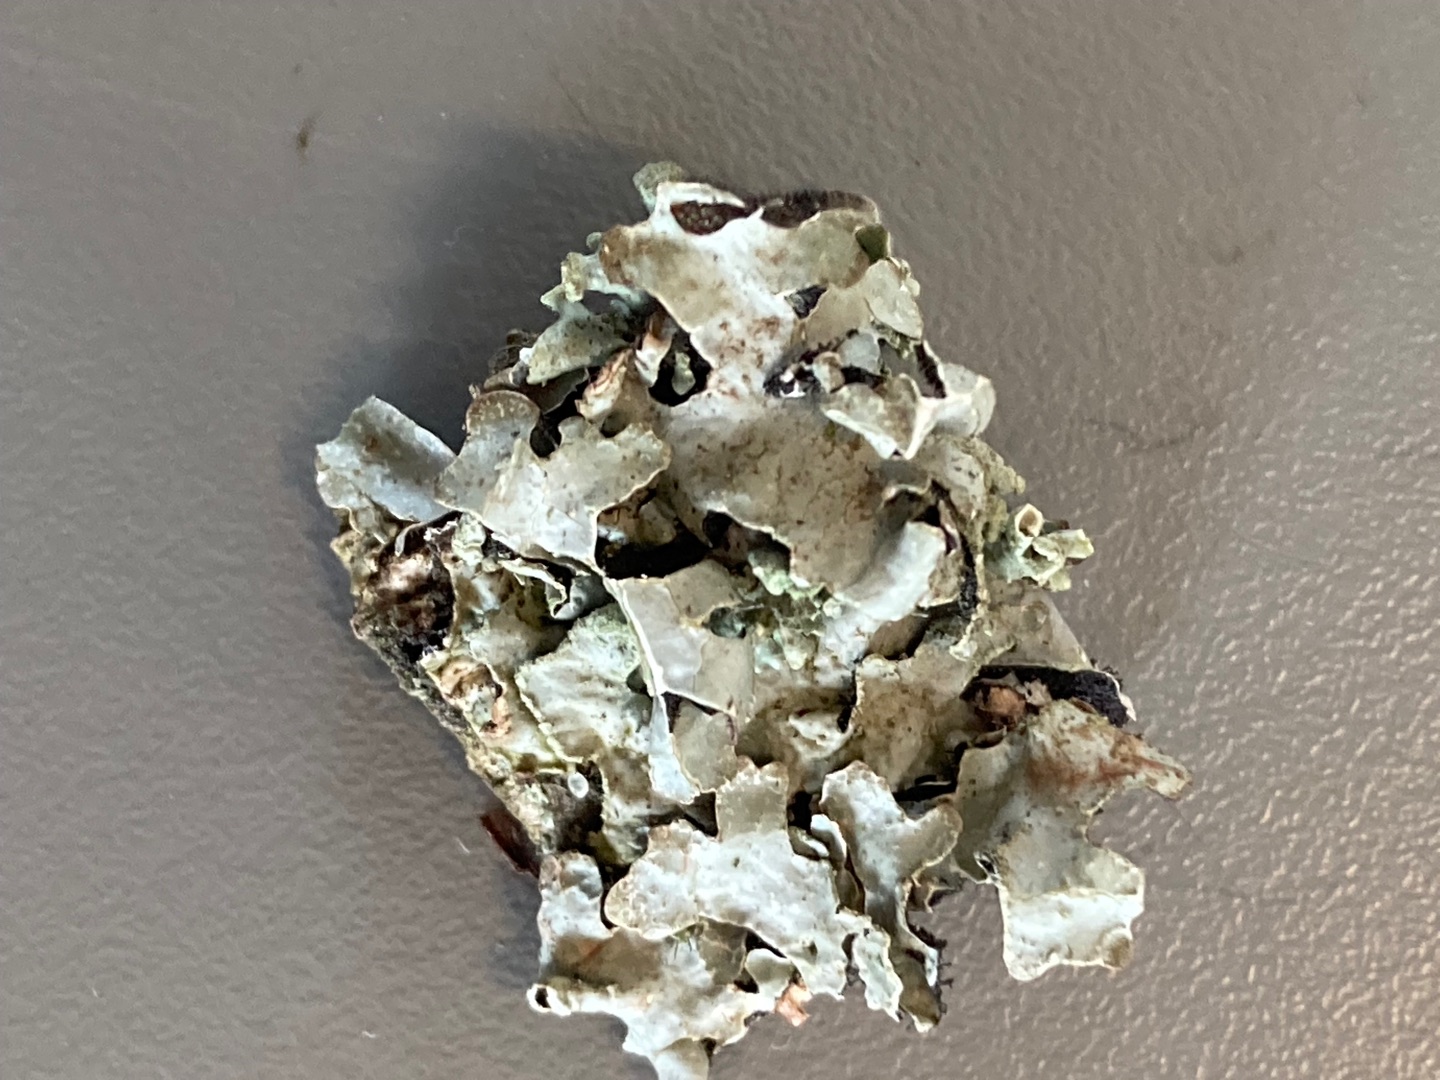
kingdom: Fungi
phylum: Ascomycota
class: Lecanoromycetes
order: Lecanorales
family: Parmeliaceae
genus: Parmelia
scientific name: Parmelia sulcata
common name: Rynket skållav
